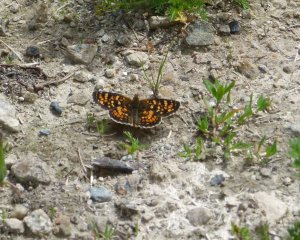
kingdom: Animalia
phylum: Arthropoda
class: Insecta
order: Lepidoptera
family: Nymphalidae
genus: Phyciodes
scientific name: Phyciodes tharos
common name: Field Crescent
